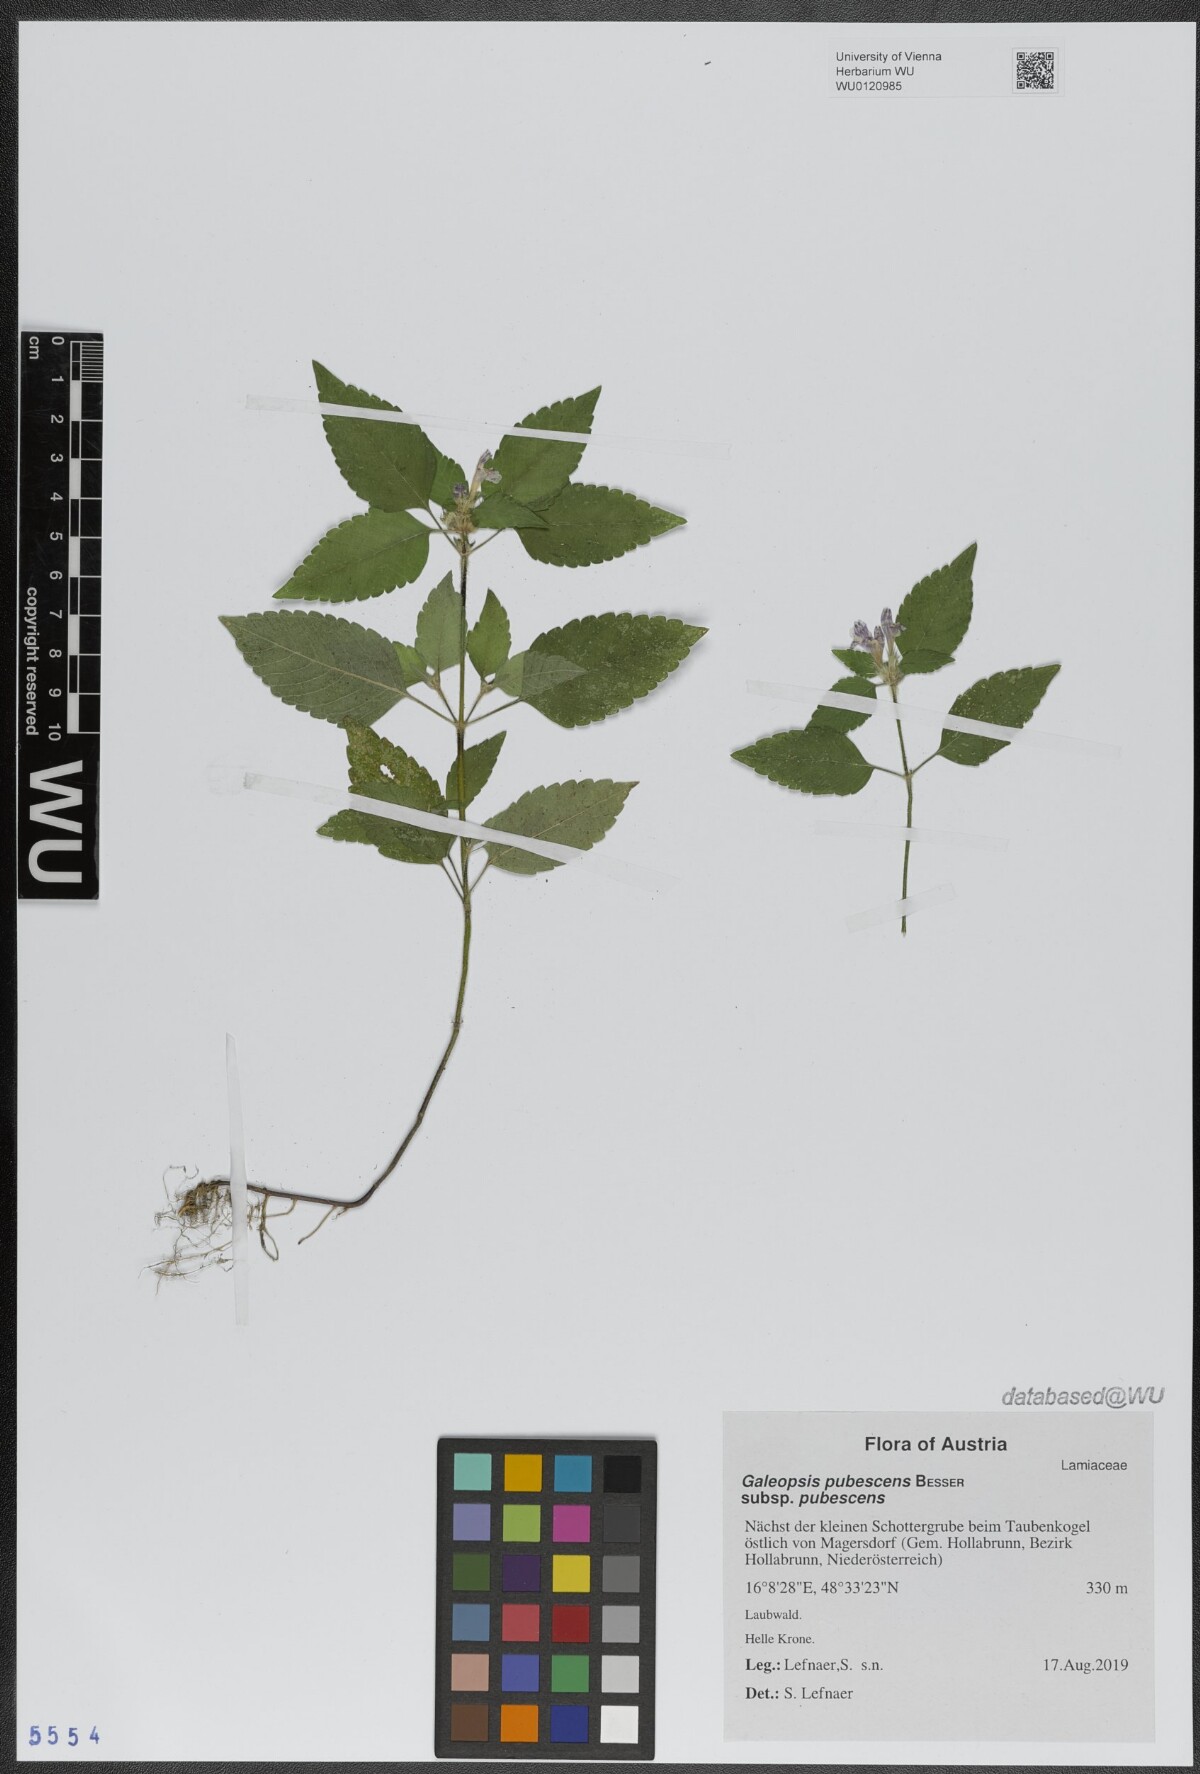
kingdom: Plantae
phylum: Tracheophyta
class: Magnoliopsida
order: Lamiales
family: Lamiaceae
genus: Galeopsis
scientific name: Galeopsis pubescens
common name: Downy hemp-nettle
